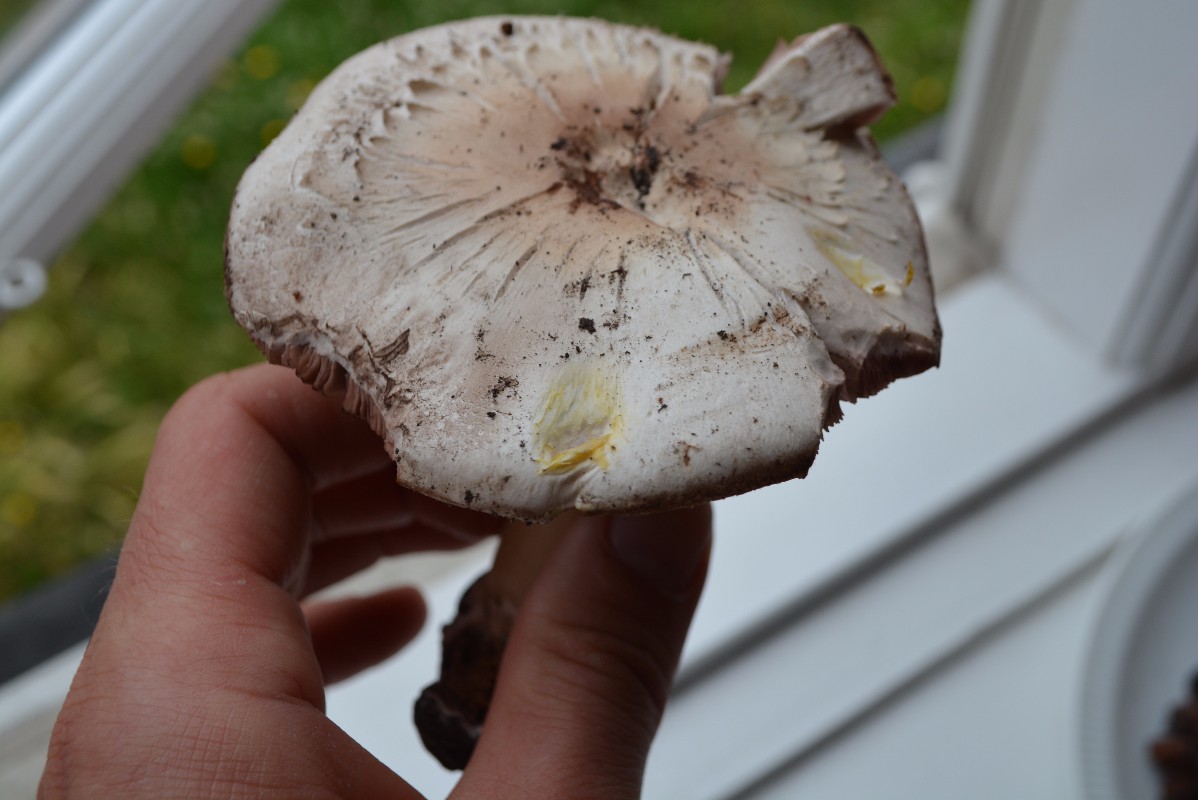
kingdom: Fungi
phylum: Basidiomycota
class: Agaricomycetes
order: Agaricales
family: Agaricaceae
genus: Agaricus
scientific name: Agaricus xanthodermus
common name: karbol-champignon
